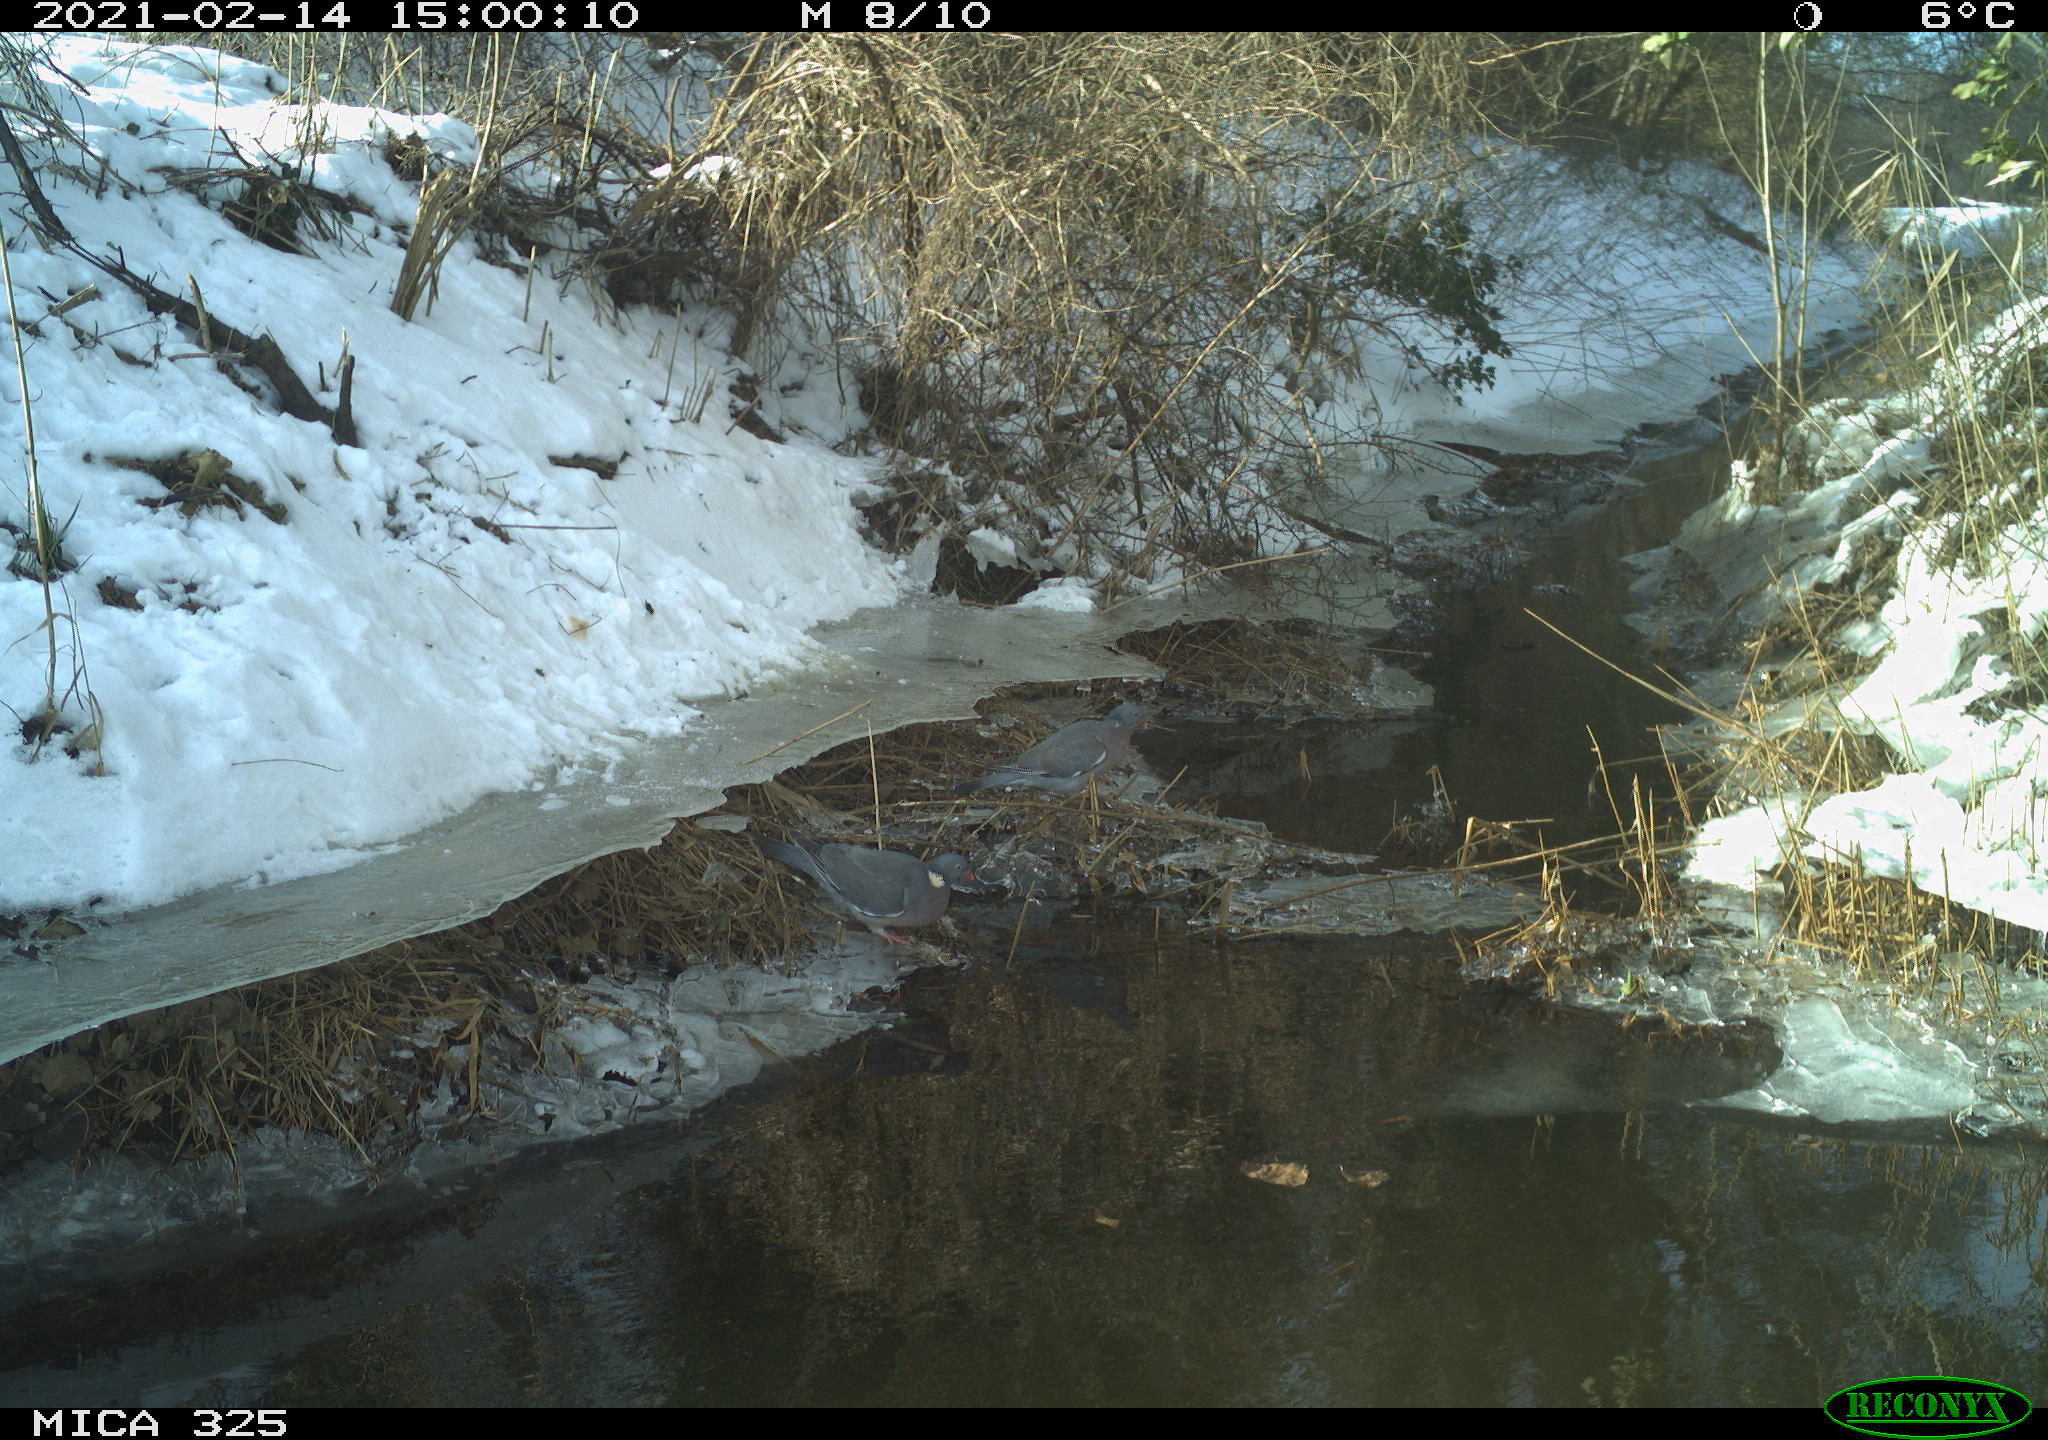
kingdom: Animalia
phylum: Chordata
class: Aves
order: Columbiformes
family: Columbidae
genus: Columba
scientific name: Columba palumbus
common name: Common wood pigeon
